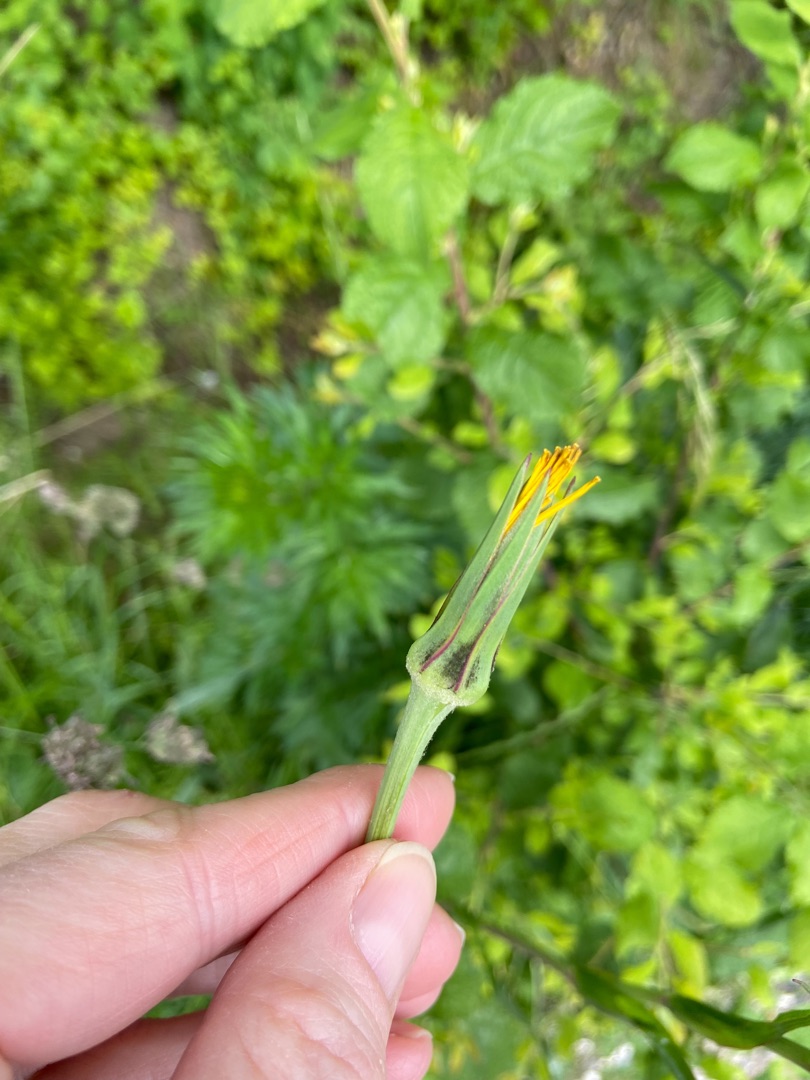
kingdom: Plantae
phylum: Tracheophyta
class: Magnoliopsida
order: Asterales
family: Asteraceae
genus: Tragopogon
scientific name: Tragopogon pratensis
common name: Gedeskæg
